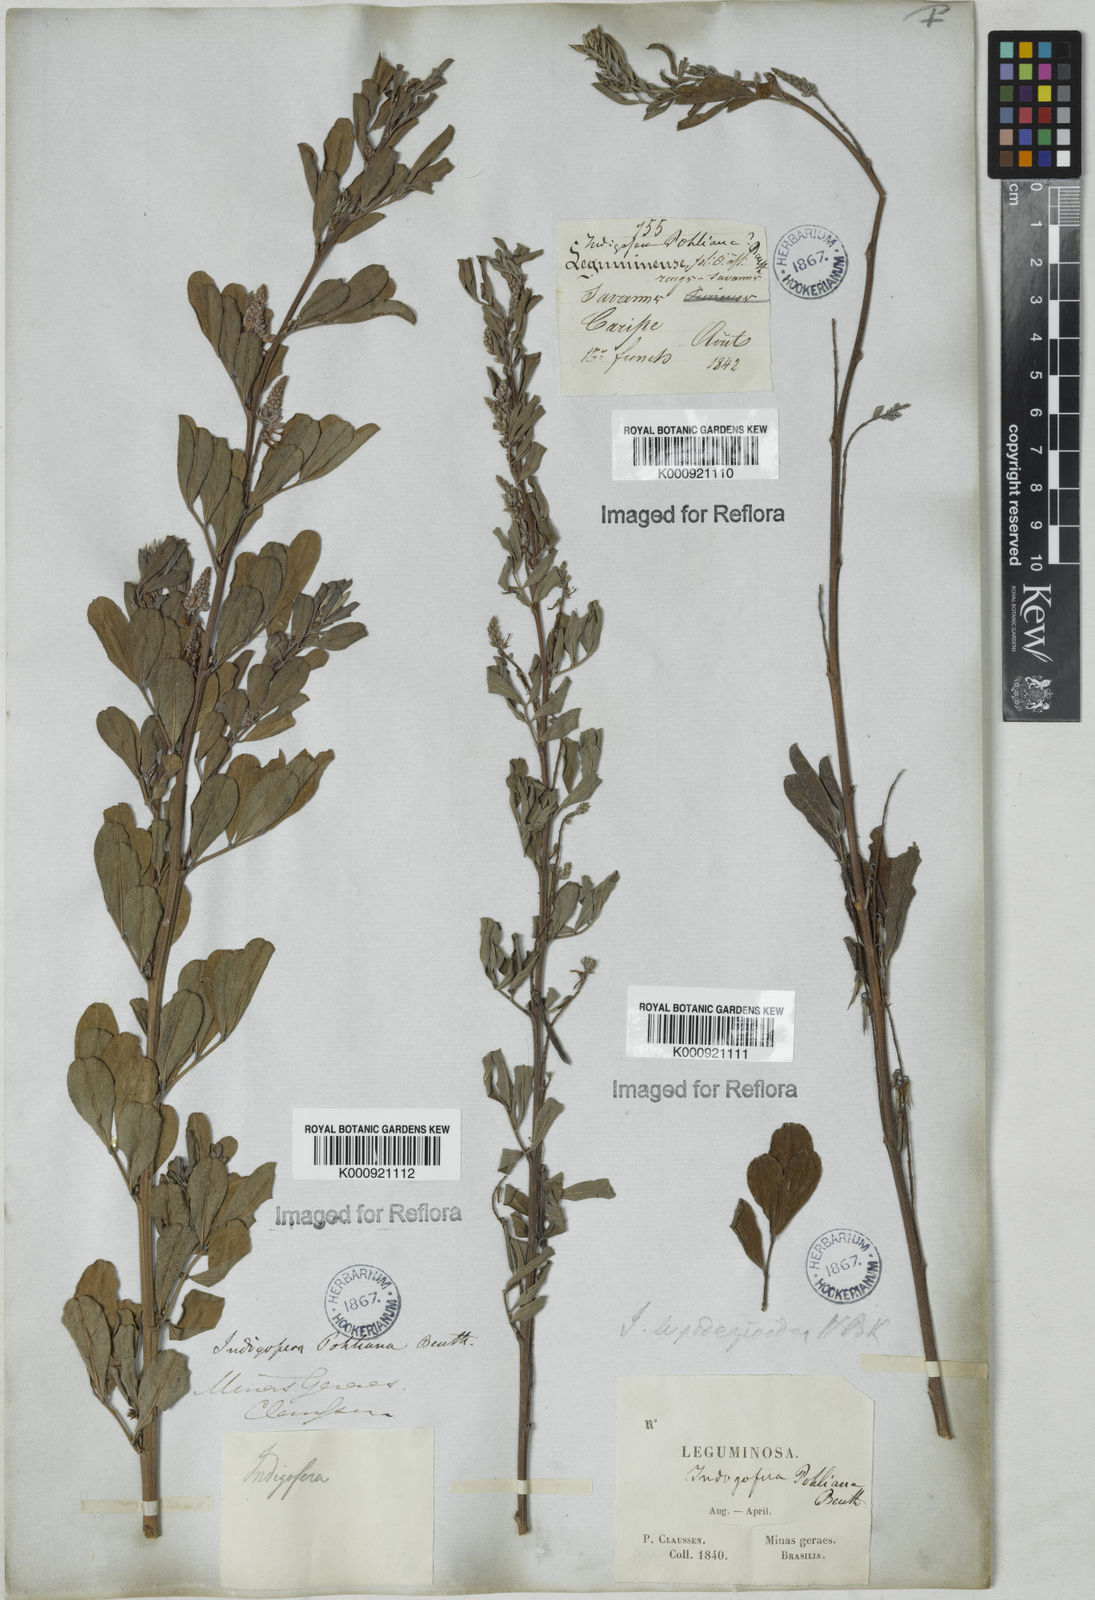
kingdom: Plantae
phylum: Tracheophyta
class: Magnoliopsida
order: Fabales
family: Fabaceae
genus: Indigofera
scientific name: Indigofera lespedezioides
